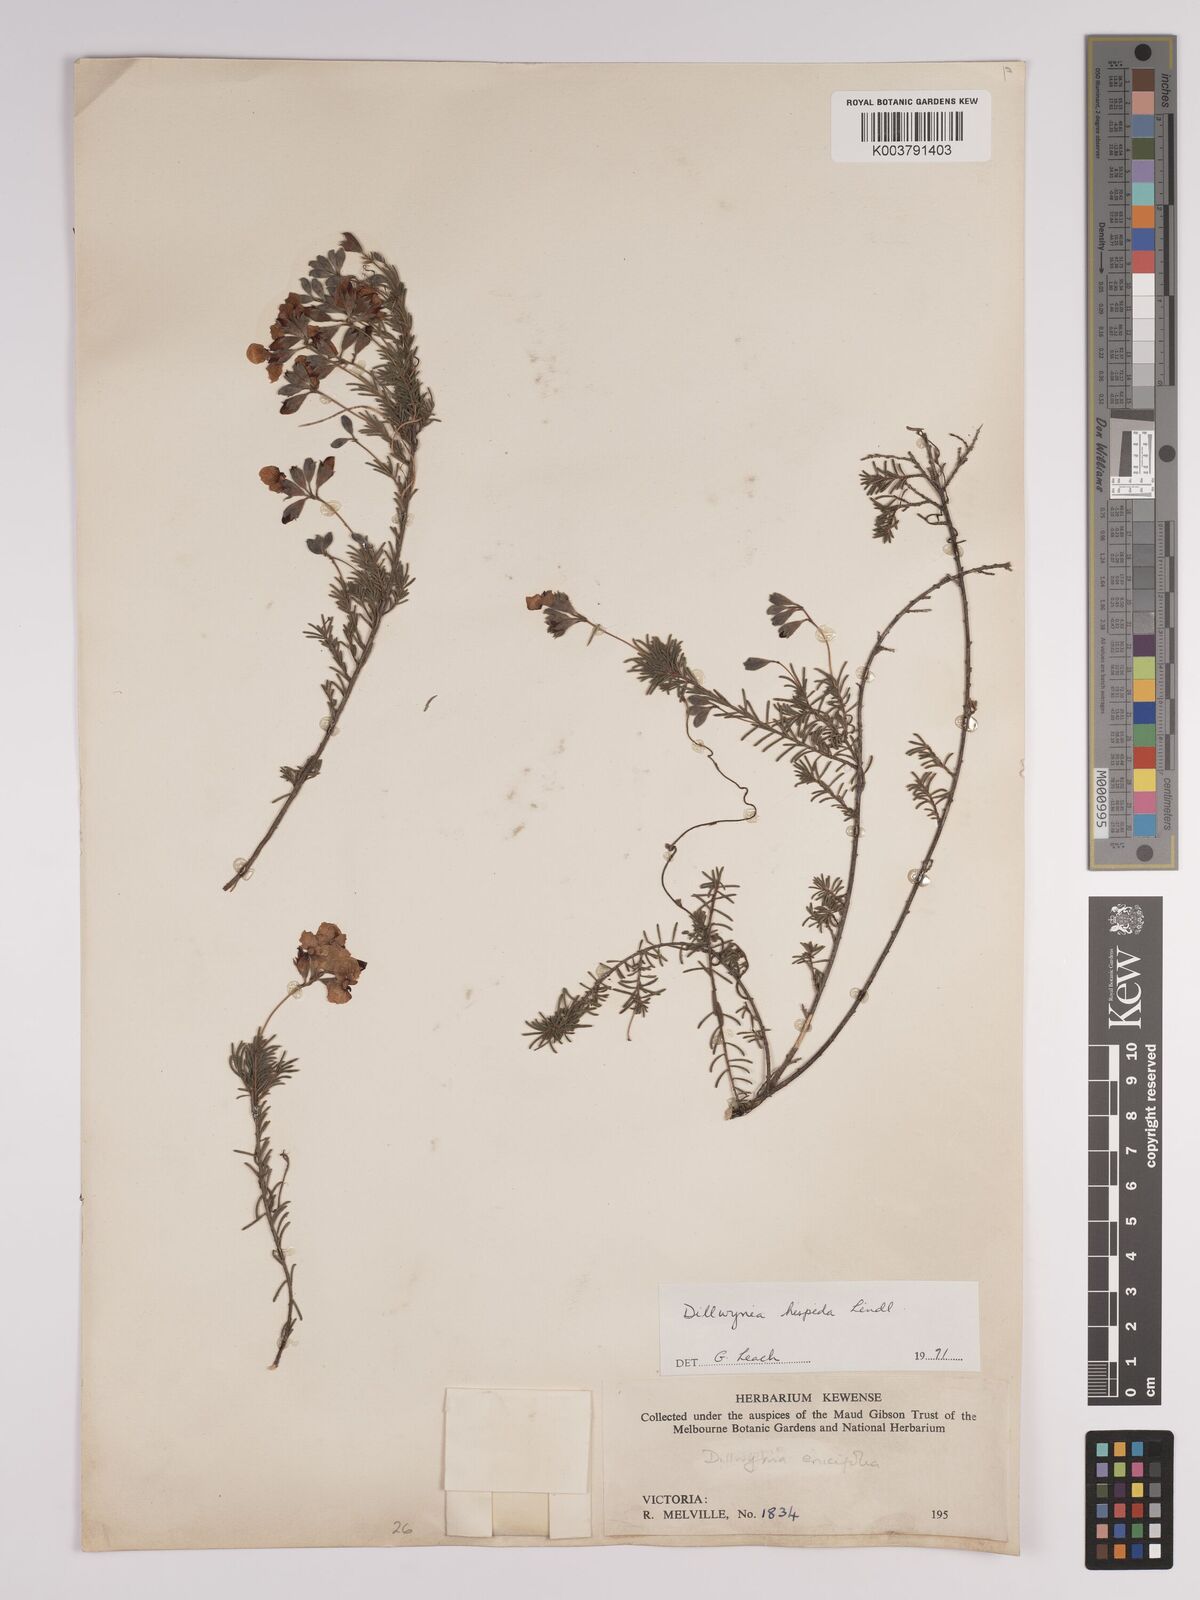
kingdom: Plantae
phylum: Tracheophyta
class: Magnoliopsida
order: Fabales
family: Fabaceae
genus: Dillwynia
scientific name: Dillwynia hispida
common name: Red parrot-pea
